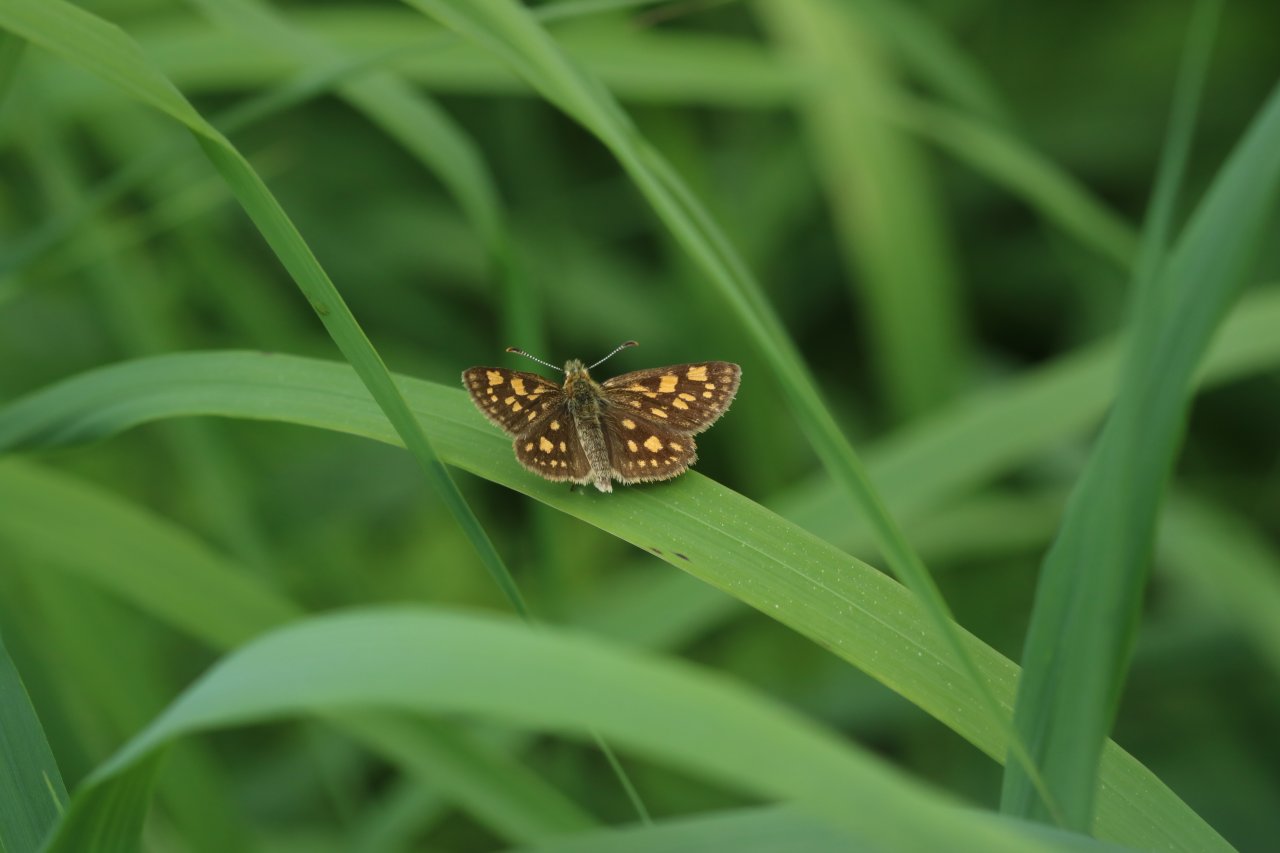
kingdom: Animalia
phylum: Arthropoda
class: Insecta
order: Lepidoptera
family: Hesperiidae
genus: Carterocephalus
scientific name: Carterocephalus palaemon
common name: Chequered Skipper
